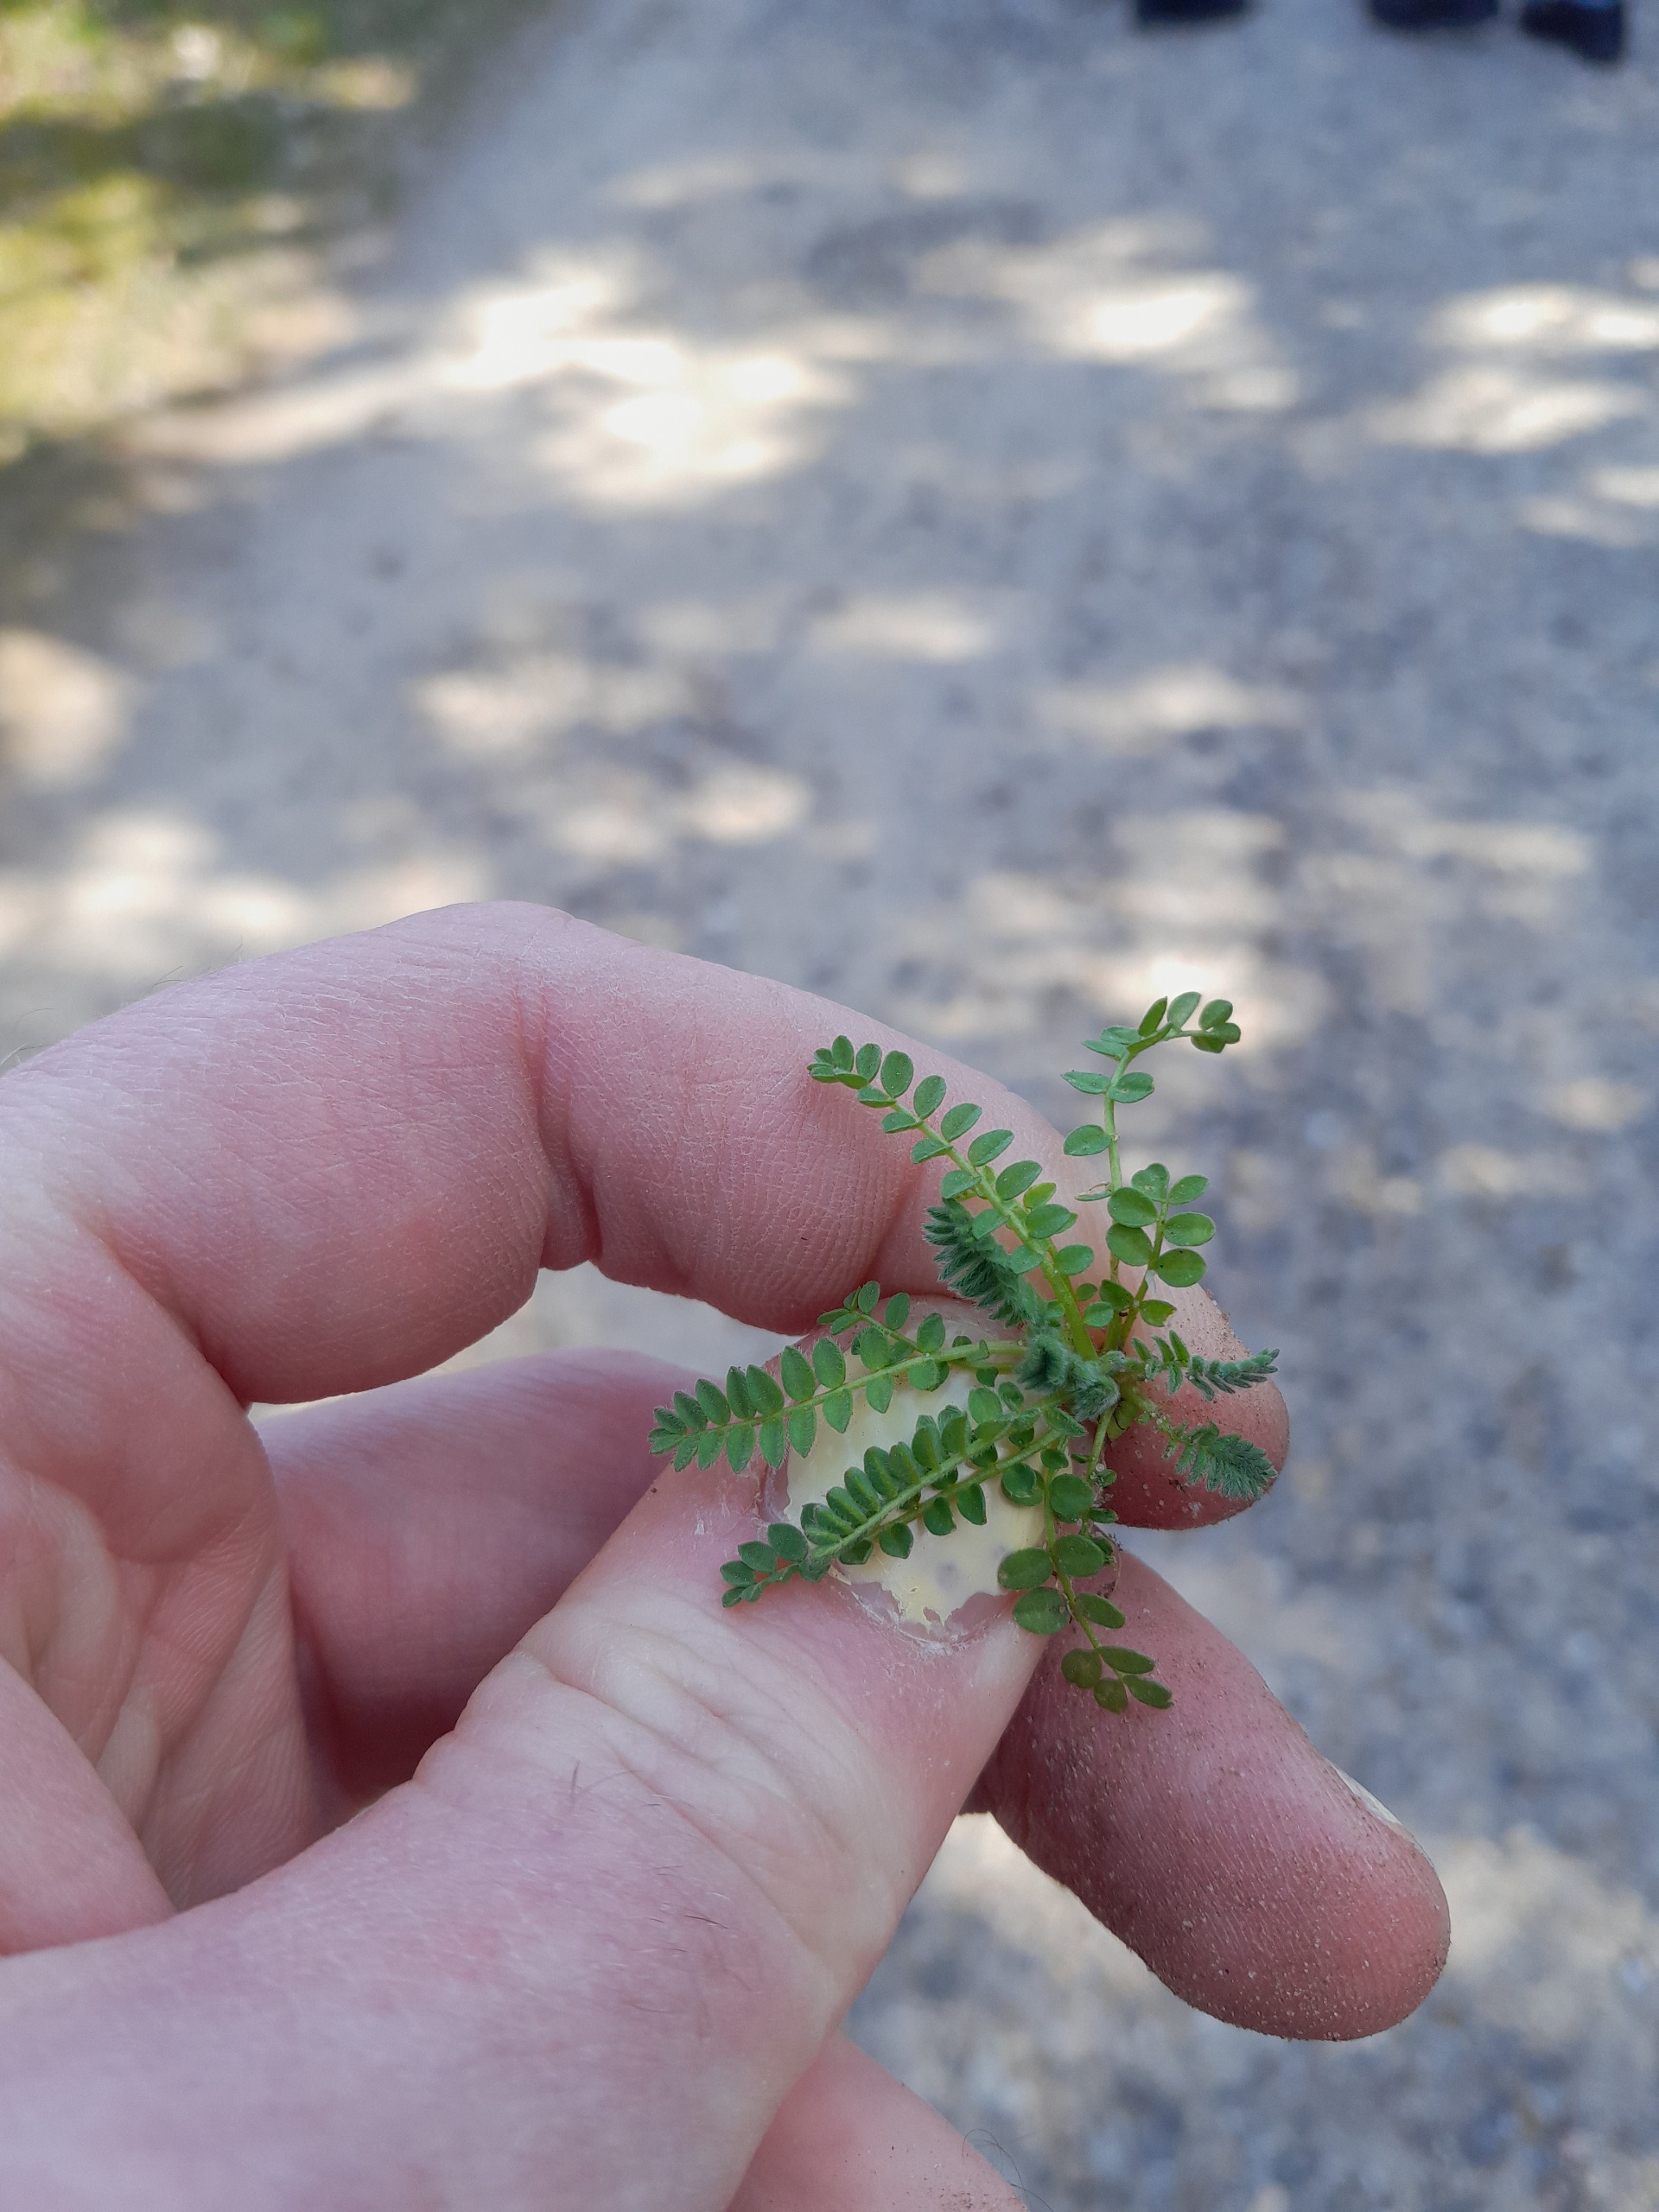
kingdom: Plantae
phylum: Tracheophyta
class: Magnoliopsida
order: Fabales
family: Fabaceae
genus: Ornithopus
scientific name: Ornithopus perpusillus
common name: Liden fugleklo
